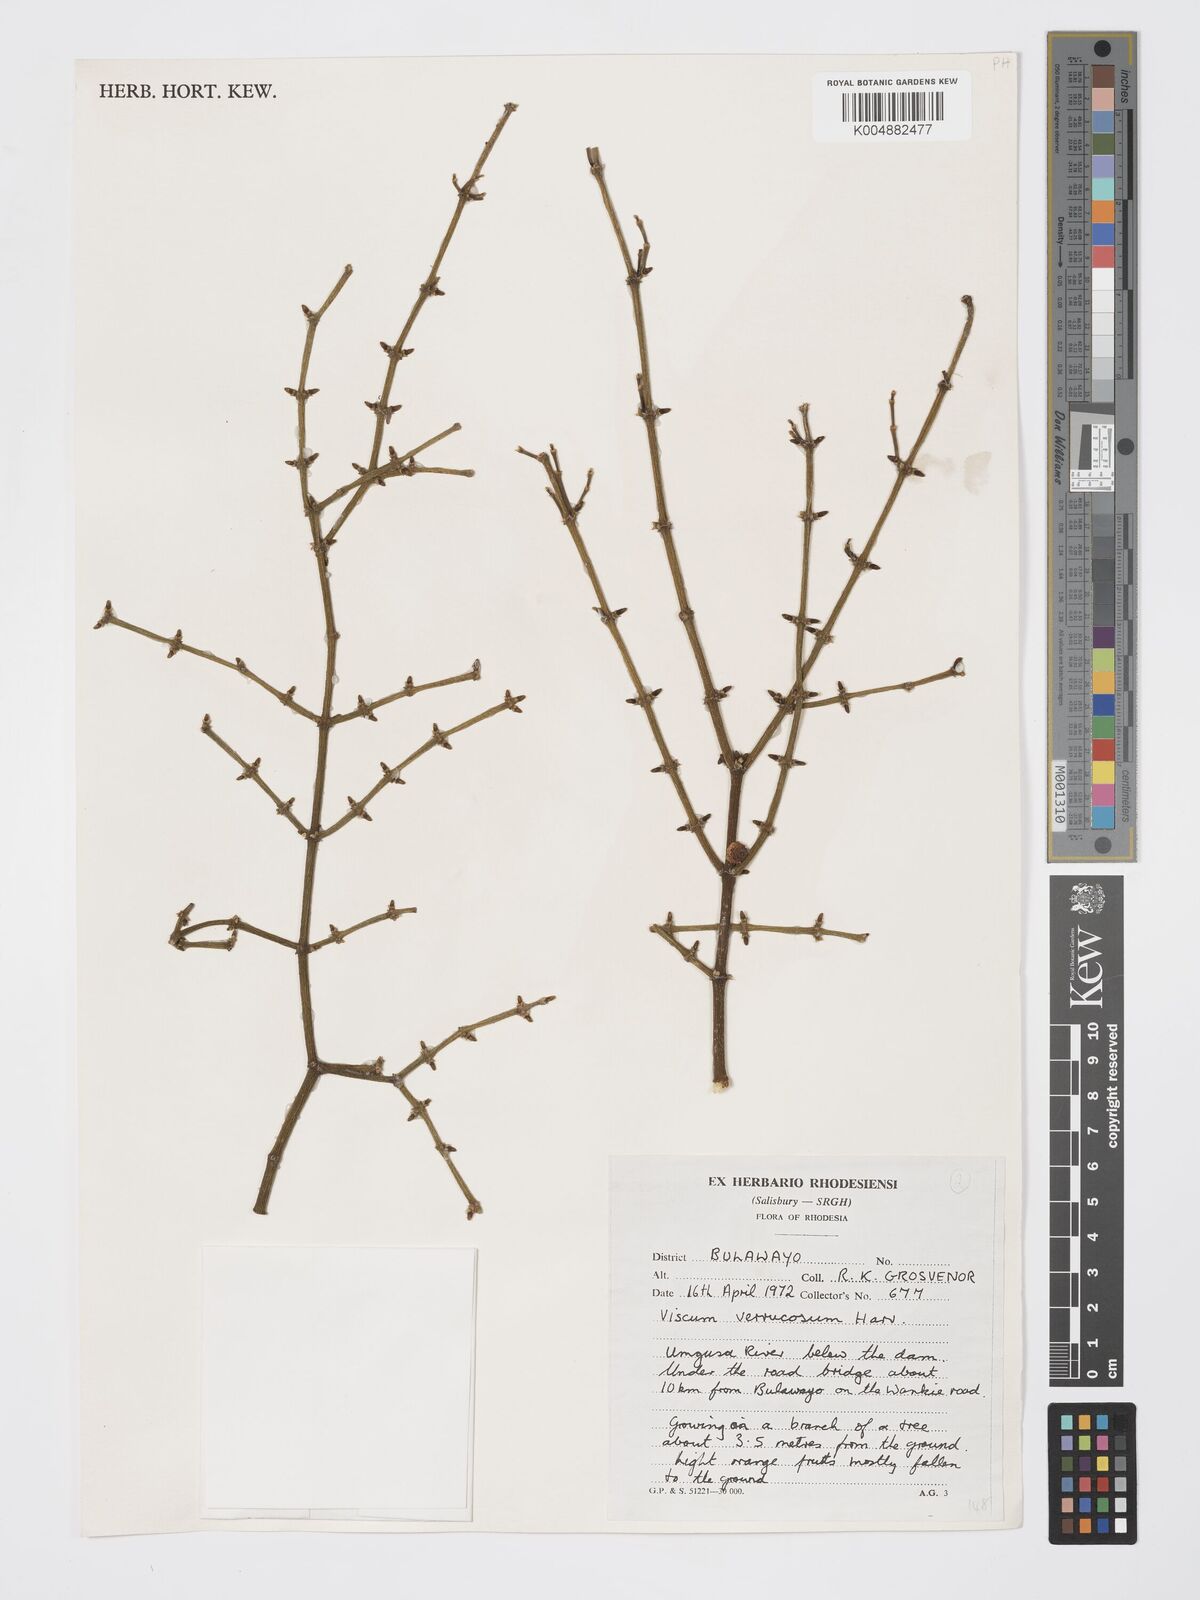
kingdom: Plantae
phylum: Tracheophyta
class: Magnoliopsida
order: Santalales
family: Viscaceae
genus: Viscum
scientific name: Viscum verrucosum
